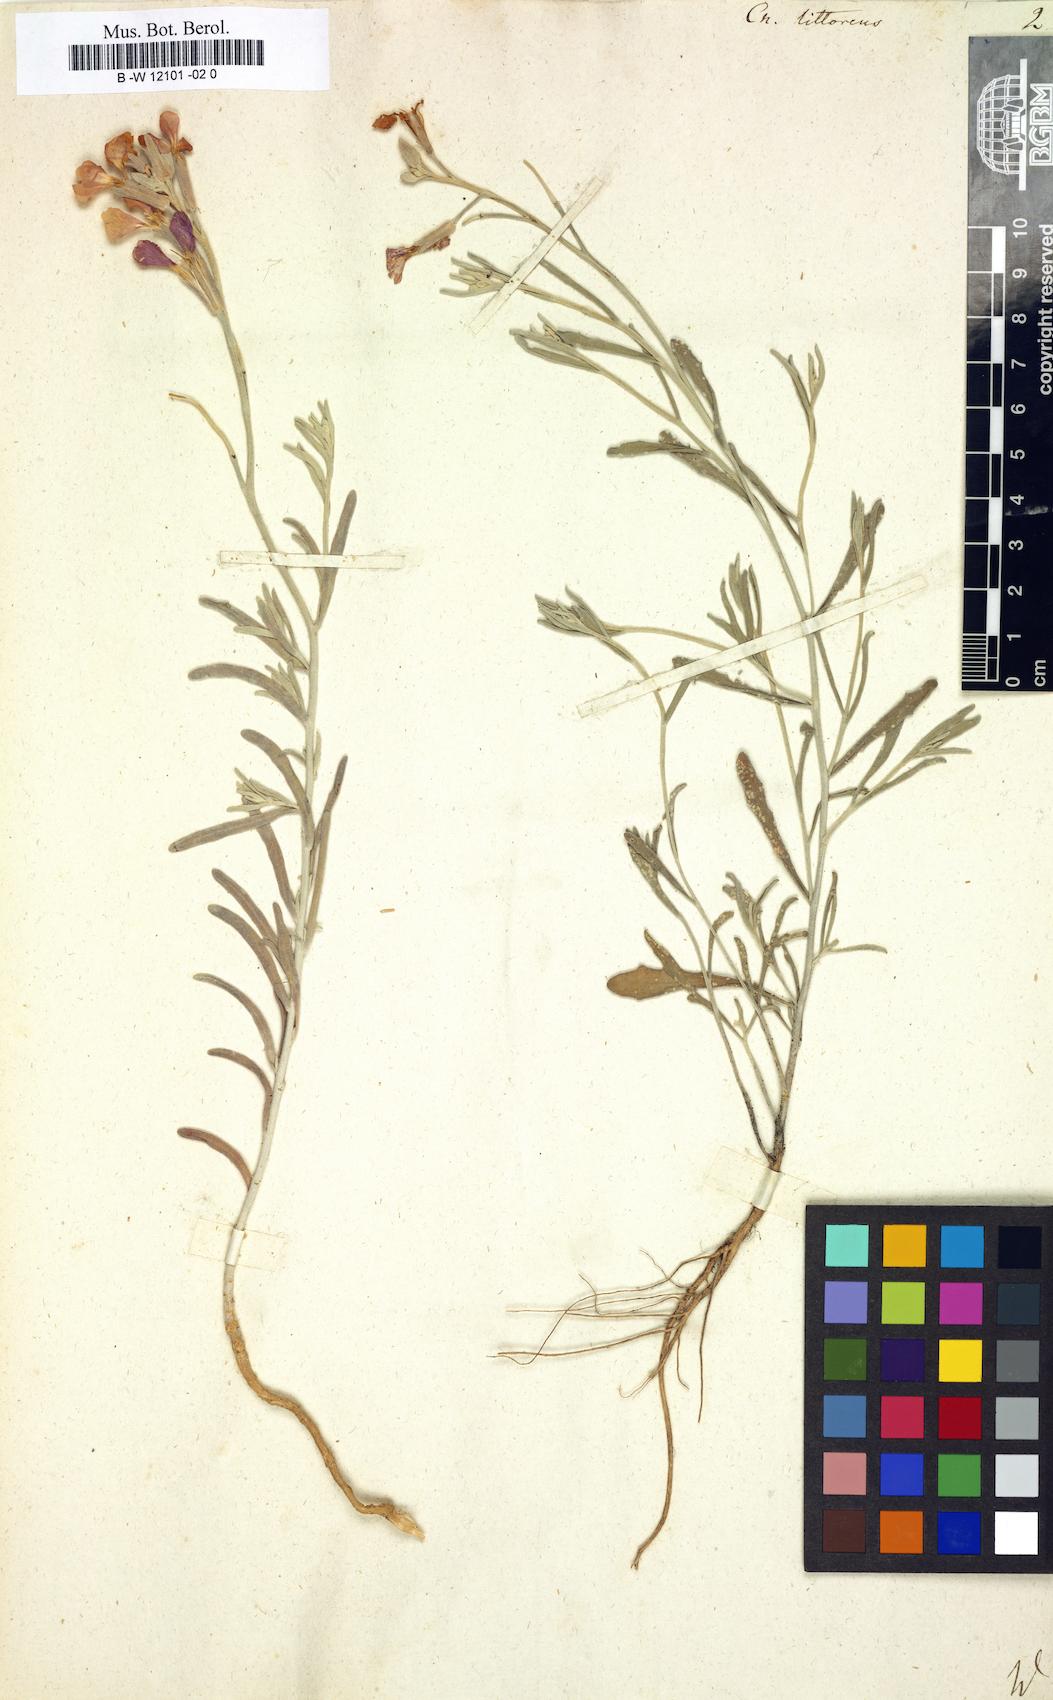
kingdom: Plantae
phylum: Tracheophyta
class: Magnoliopsida
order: Brassicales
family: Brassicaceae
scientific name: Brassicaceae
